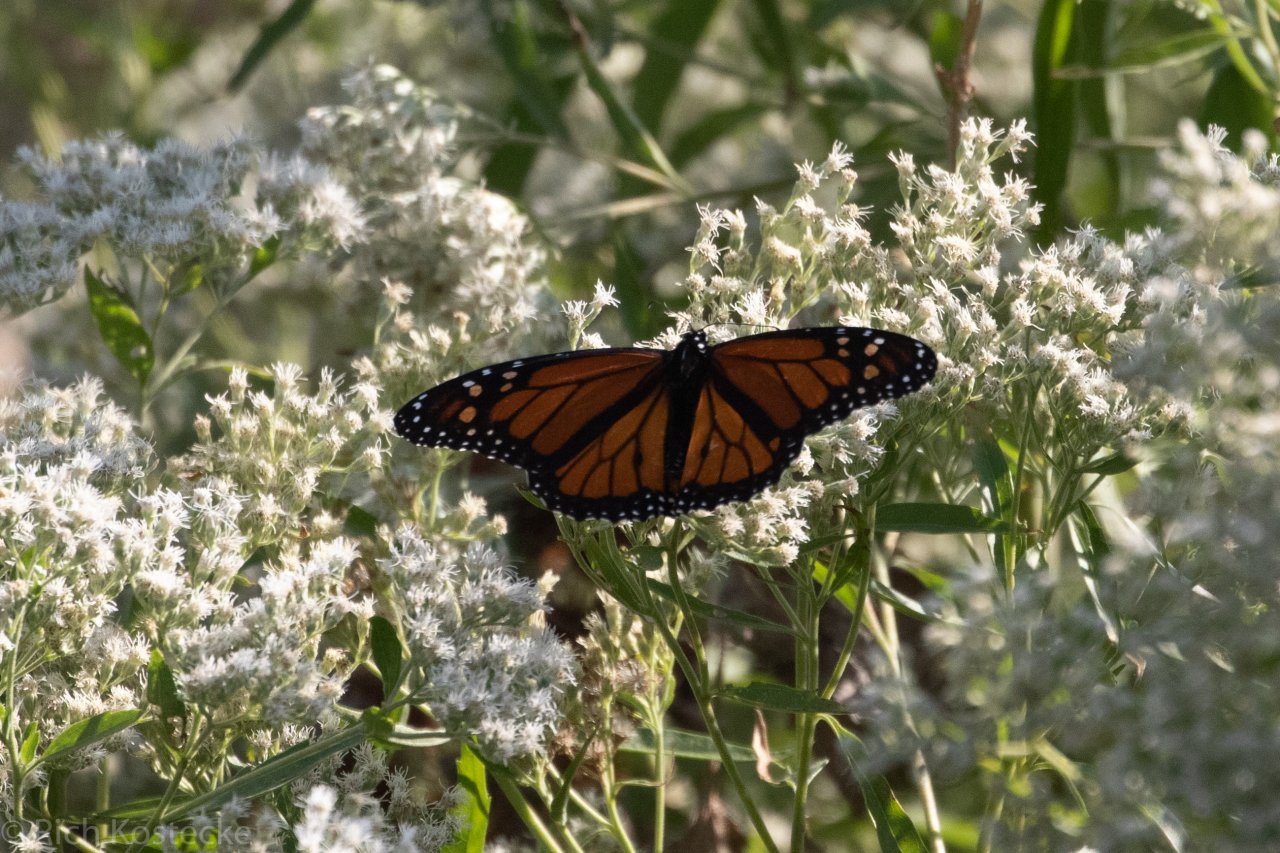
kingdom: Animalia
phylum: Arthropoda
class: Insecta
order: Lepidoptera
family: Nymphalidae
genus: Danaus
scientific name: Danaus plexippus
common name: Monarch
